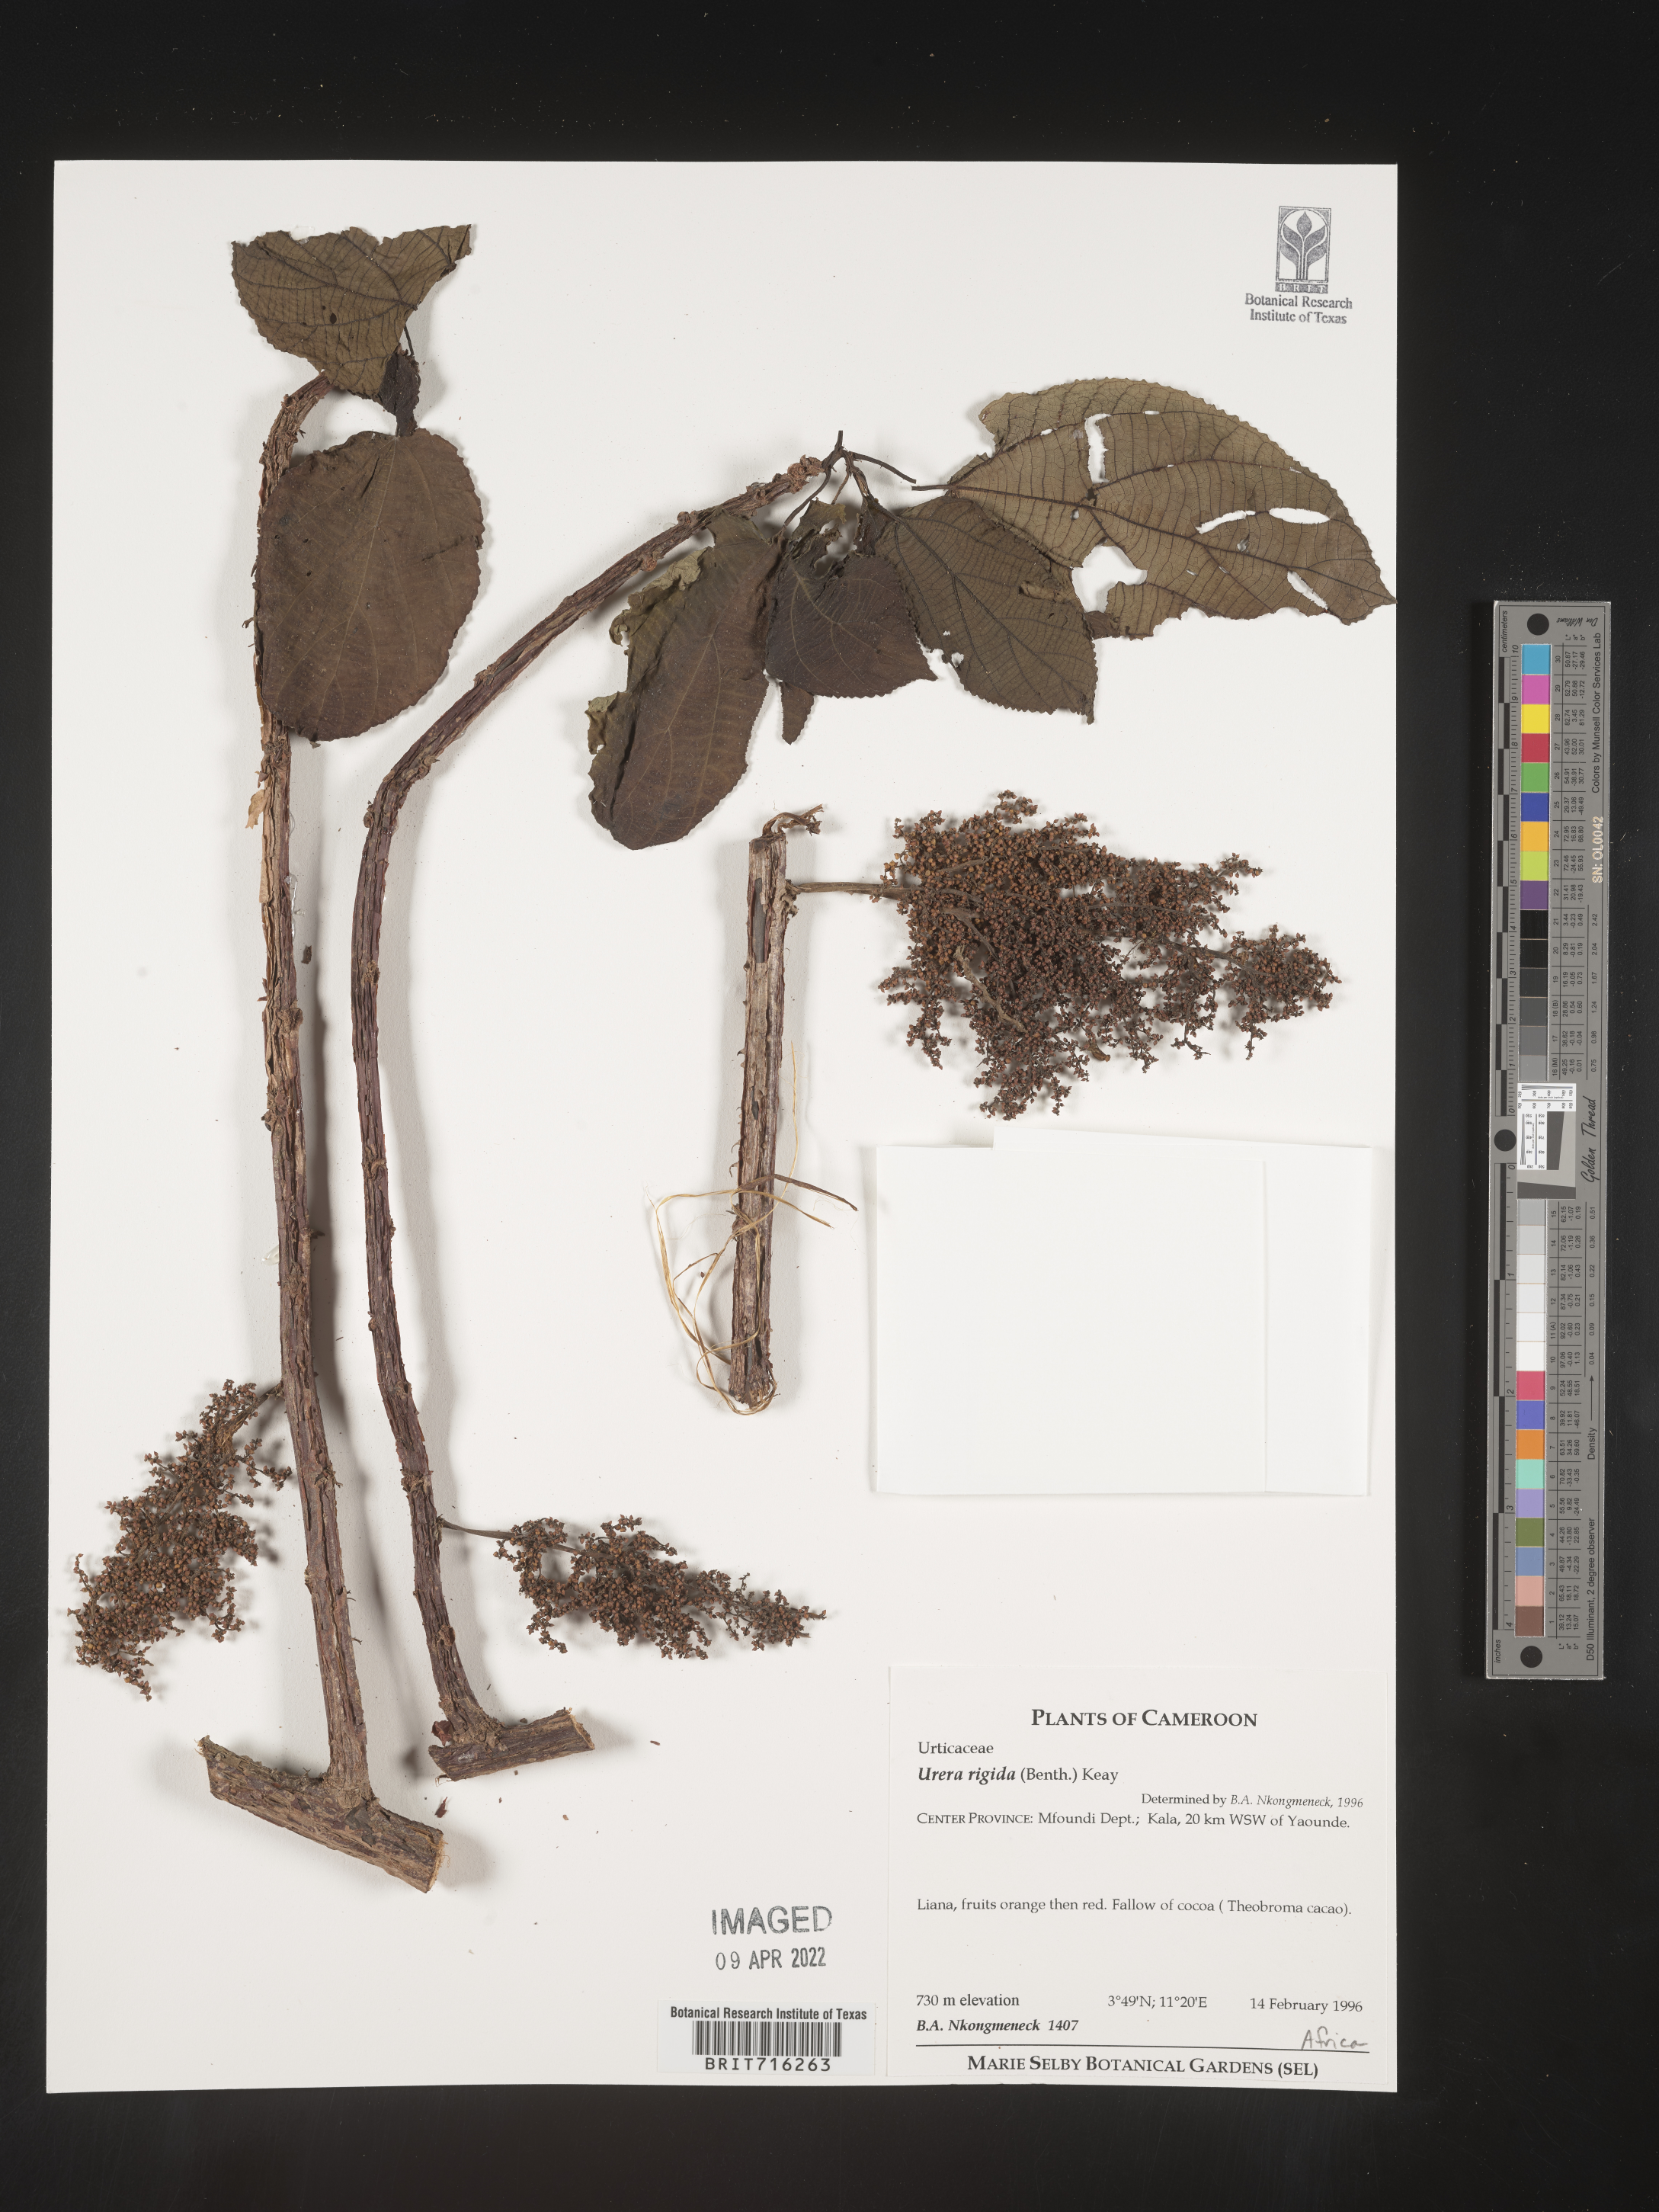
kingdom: Plantae
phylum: Tracheophyta
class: Magnoliopsida
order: Rosales
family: Urticaceae
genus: Urera
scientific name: Urera
